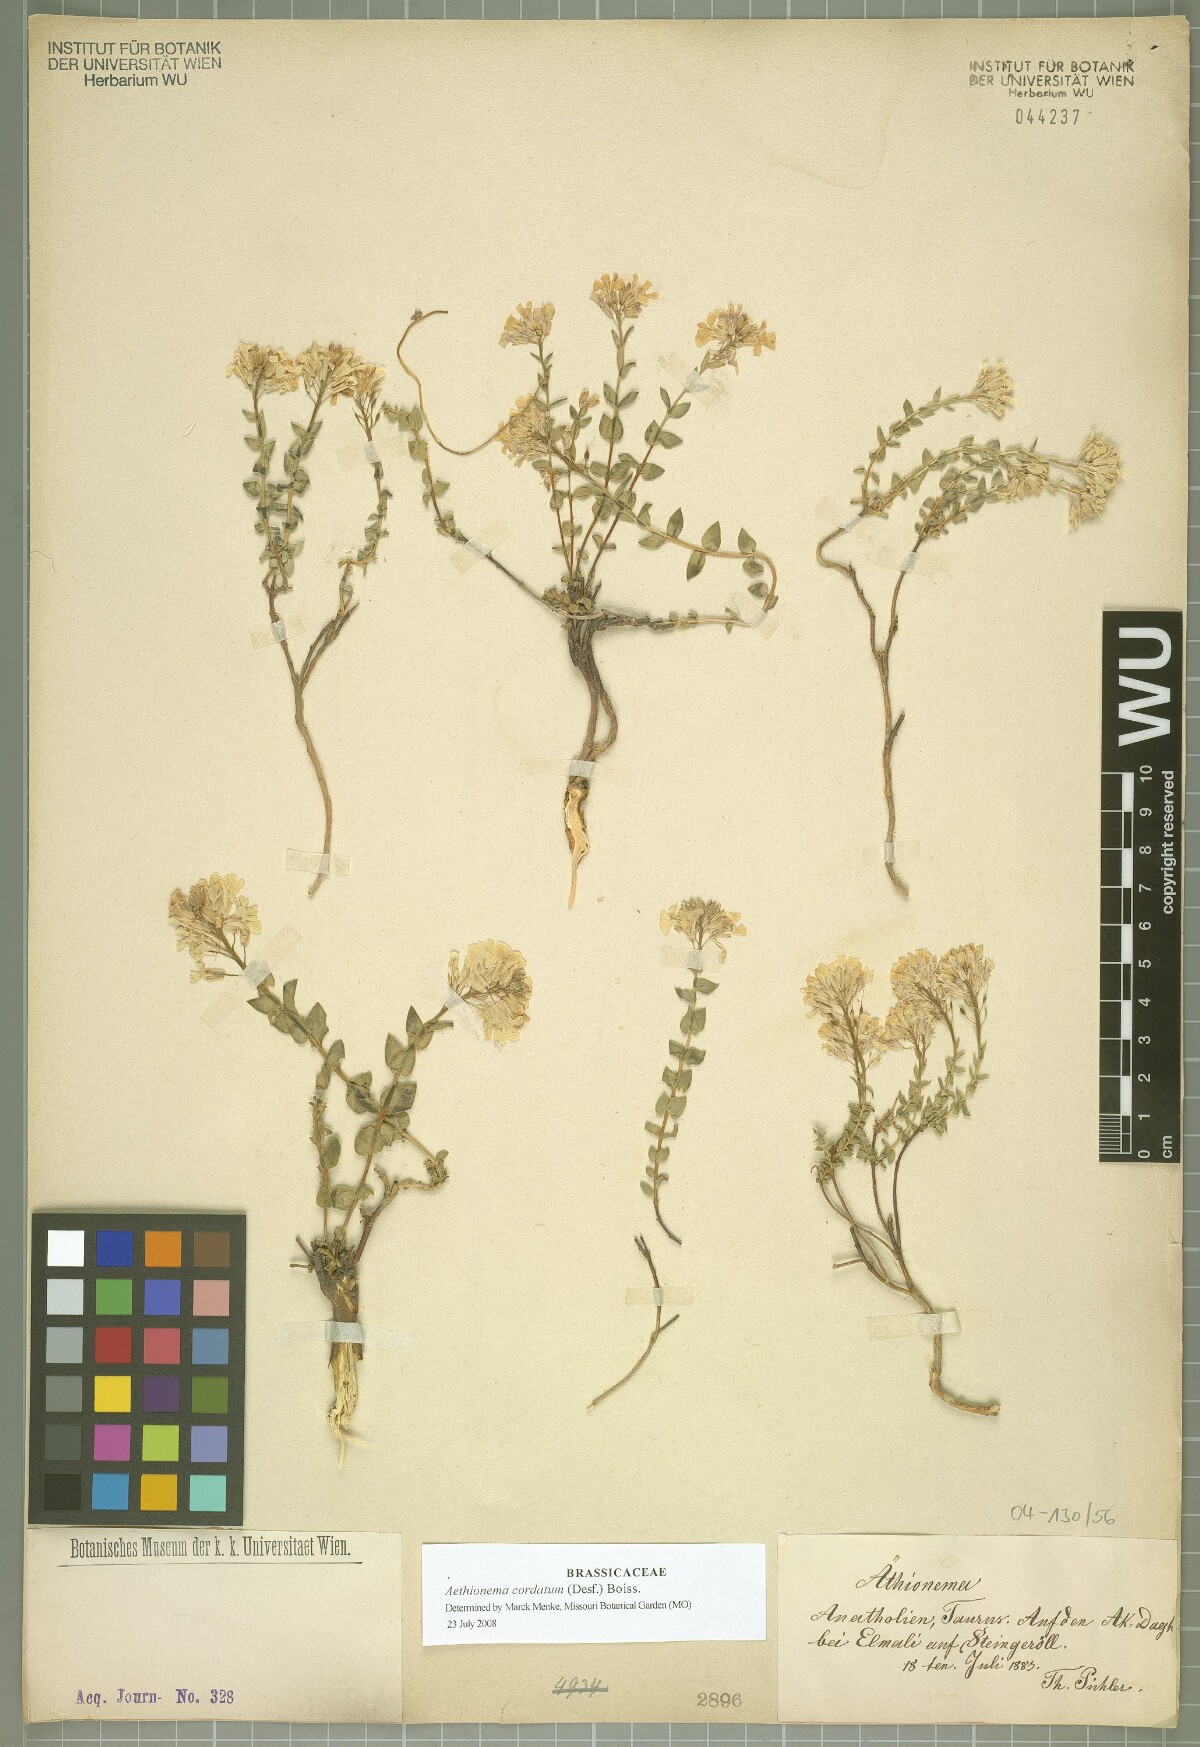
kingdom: Plantae
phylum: Tracheophyta
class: Magnoliopsida
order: Brassicales
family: Brassicaceae
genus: Aethionema
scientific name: Aethionema cordatum
